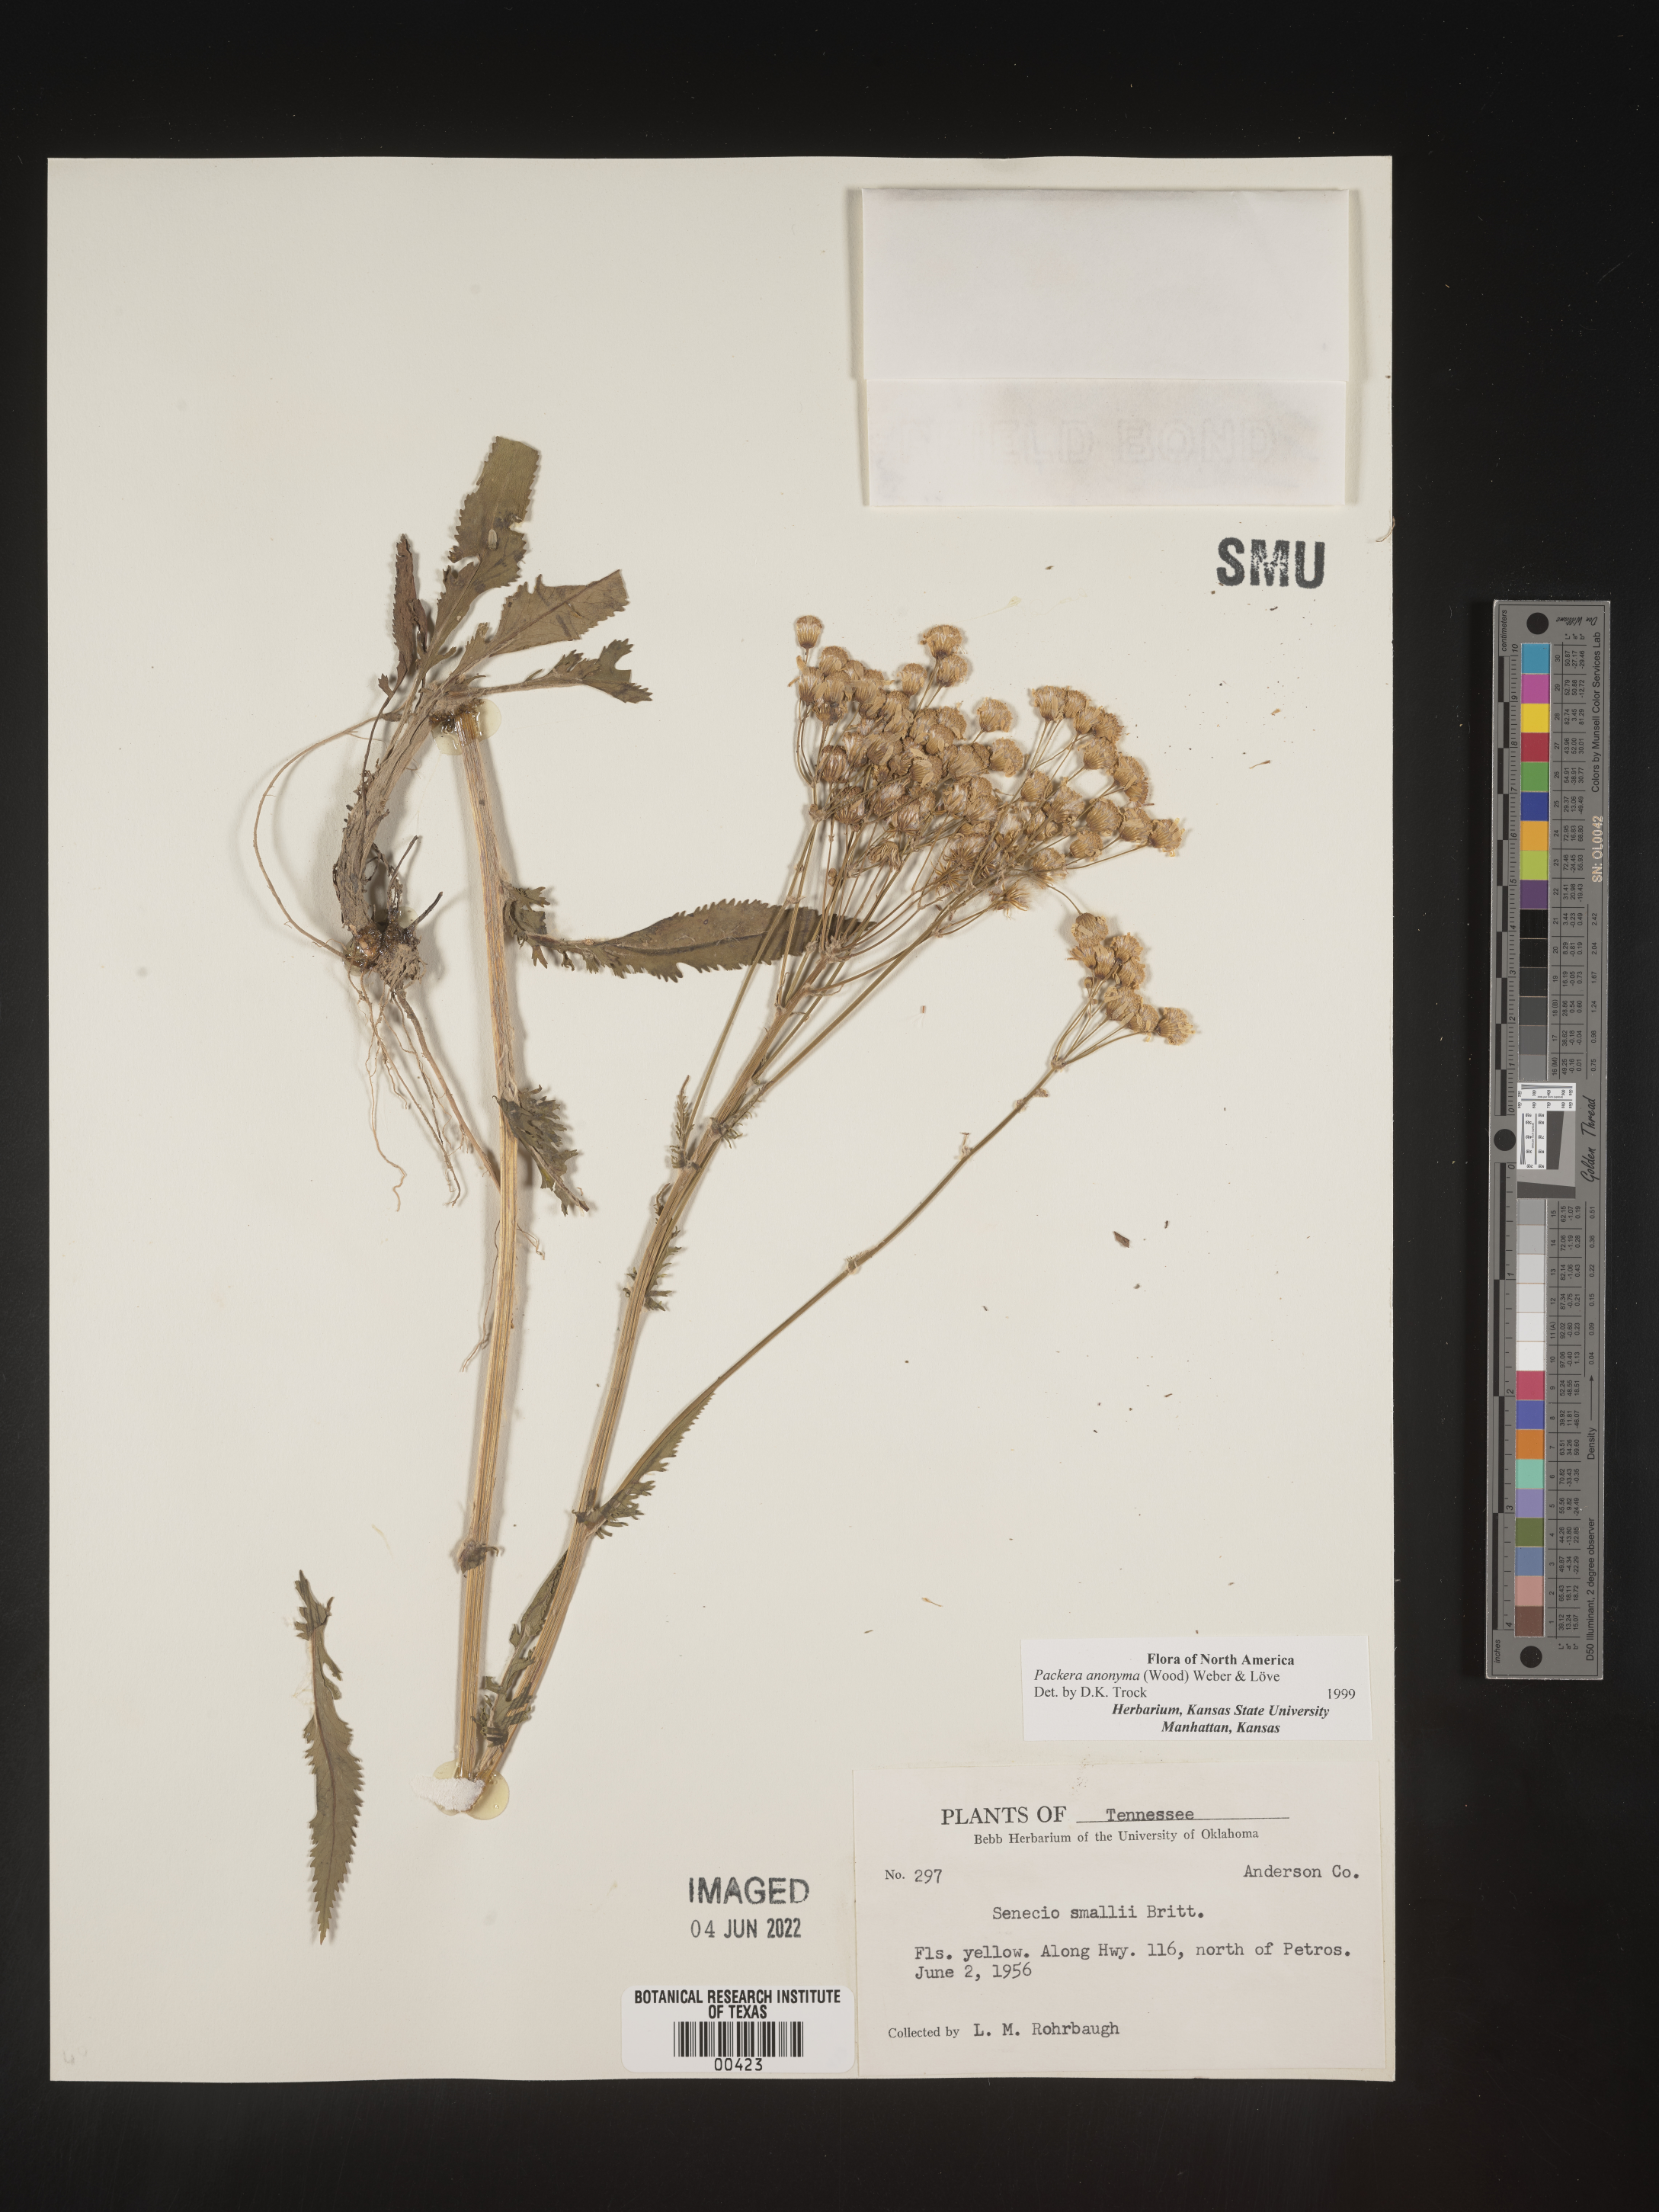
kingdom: Plantae
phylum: Tracheophyta
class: Magnoliopsida
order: Asterales
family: Asteraceae
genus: Packera
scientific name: Packera anonyma
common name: Small ragwort
